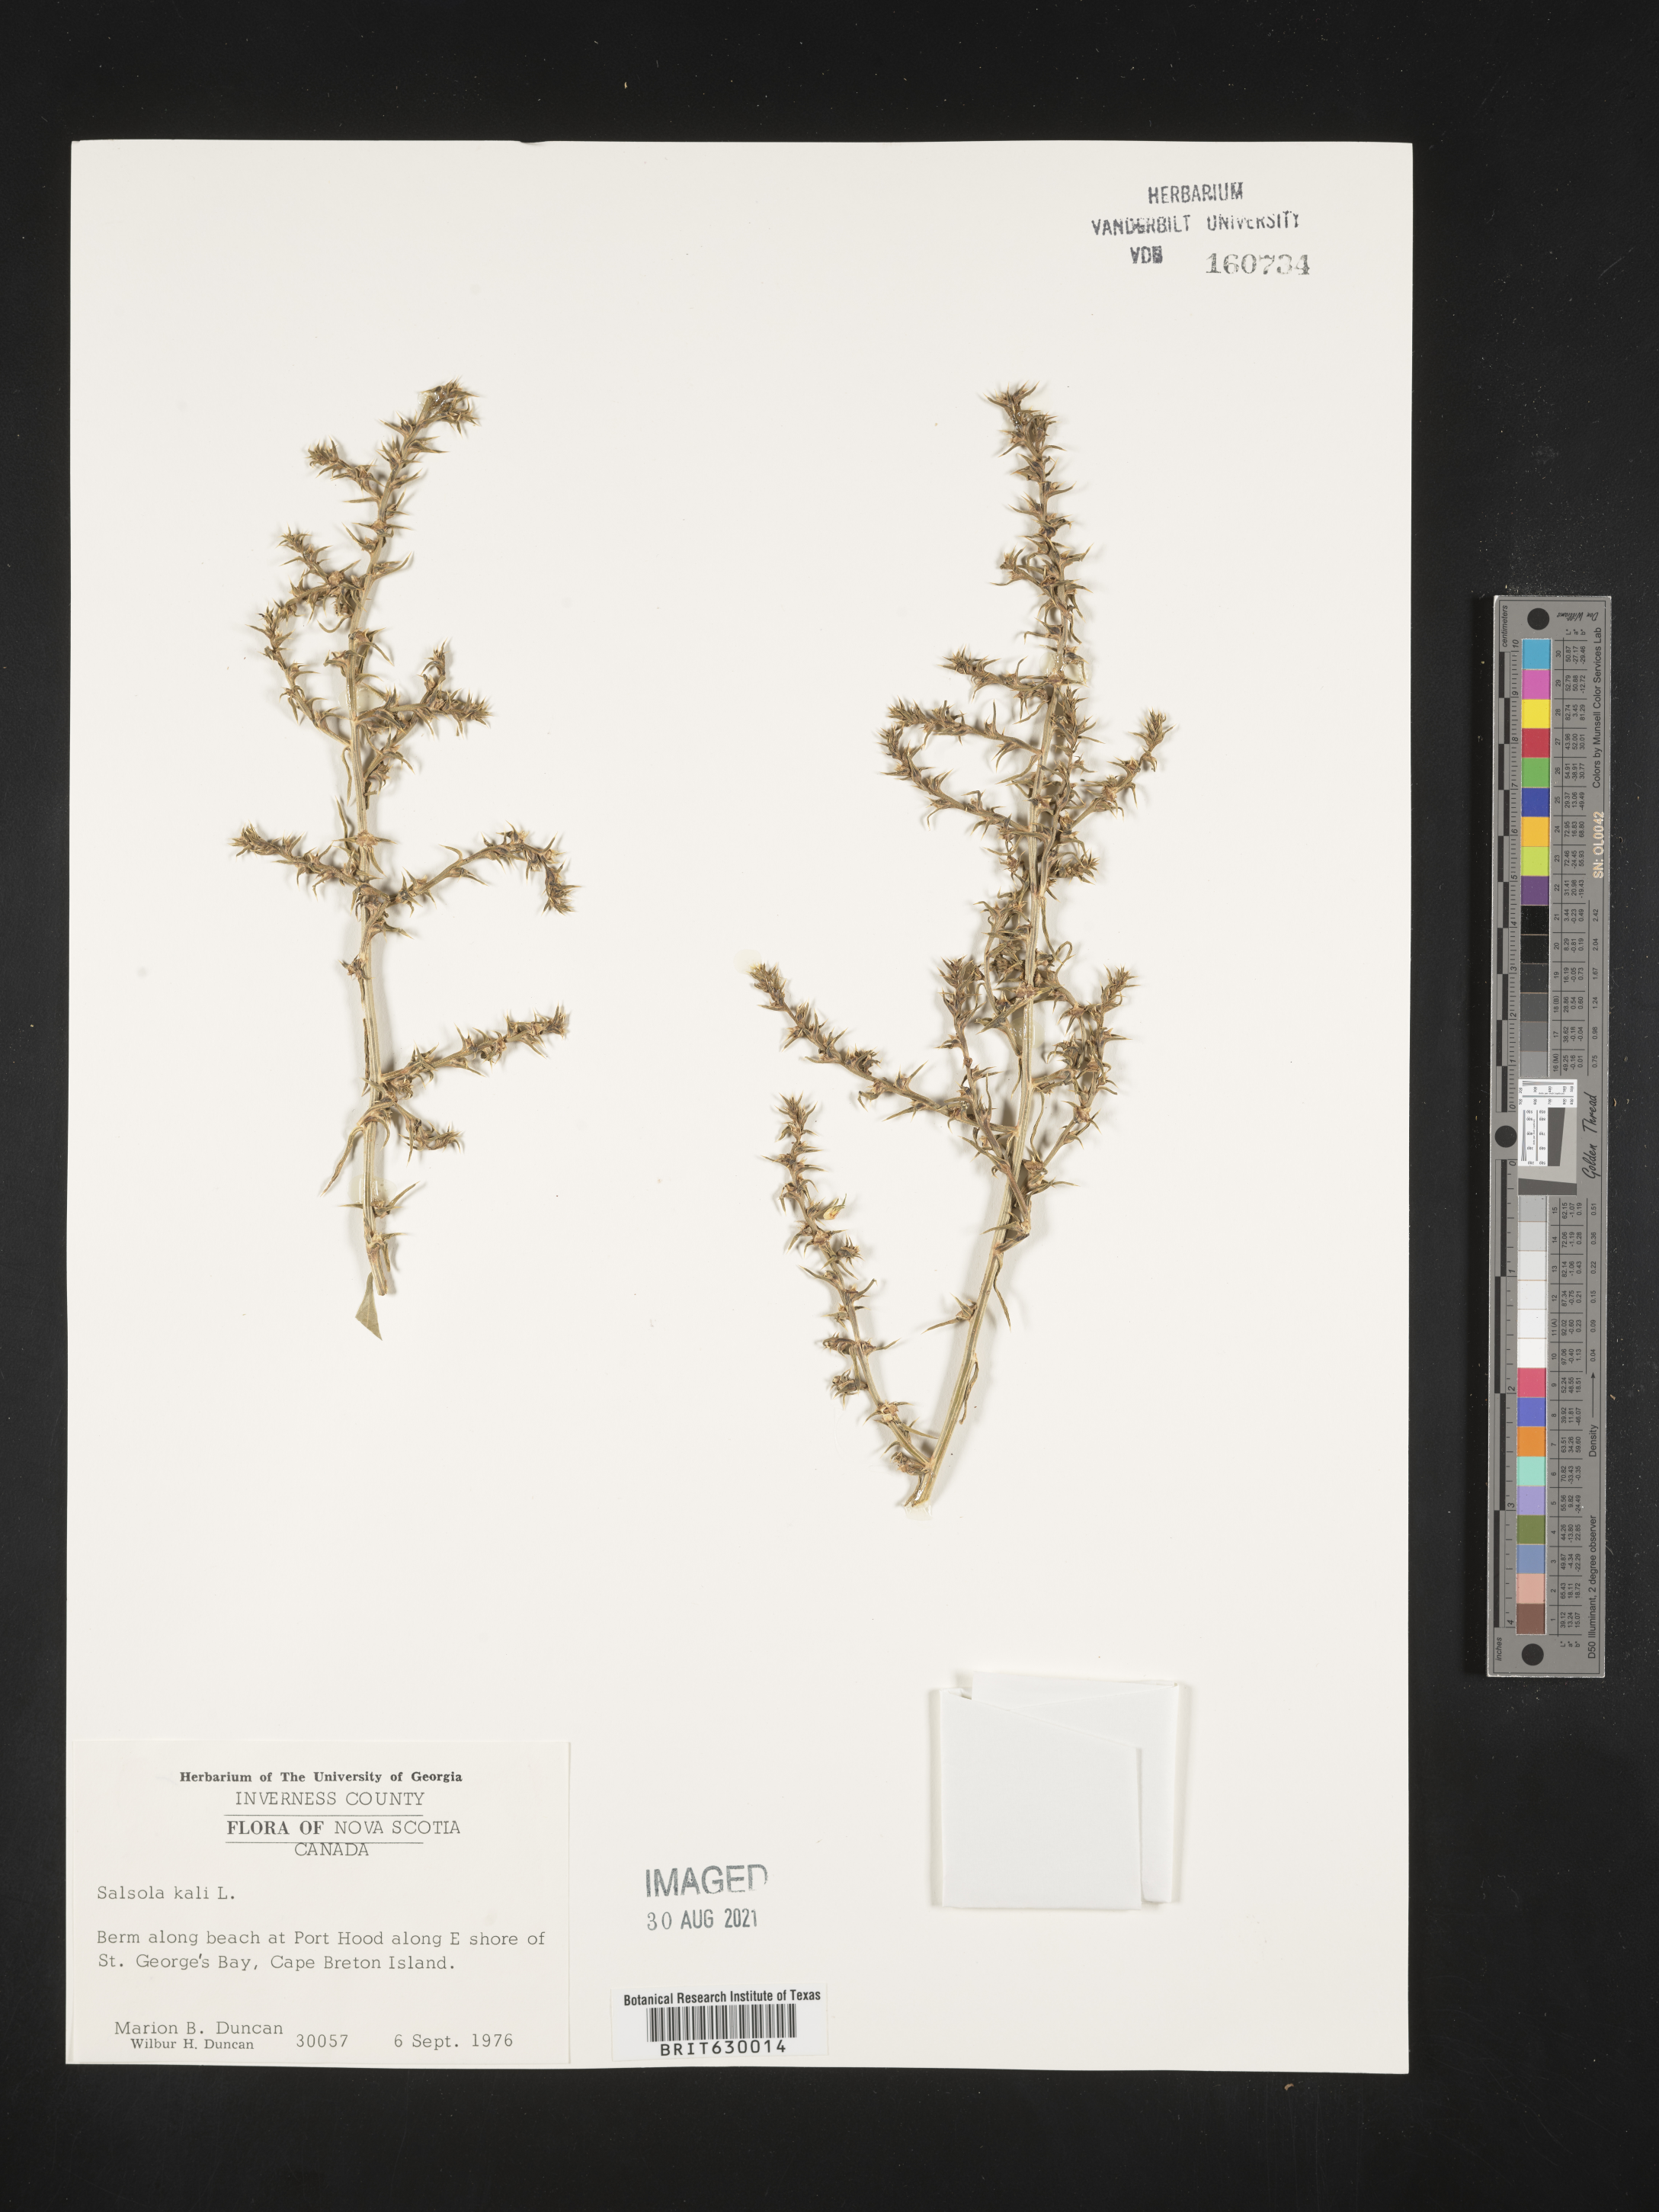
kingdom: Plantae
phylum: Tracheophyta
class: Magnoliopsida
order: Caryophyllales
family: Amaranthaceae
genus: Salsola
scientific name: Salsola kali
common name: Saltwort
